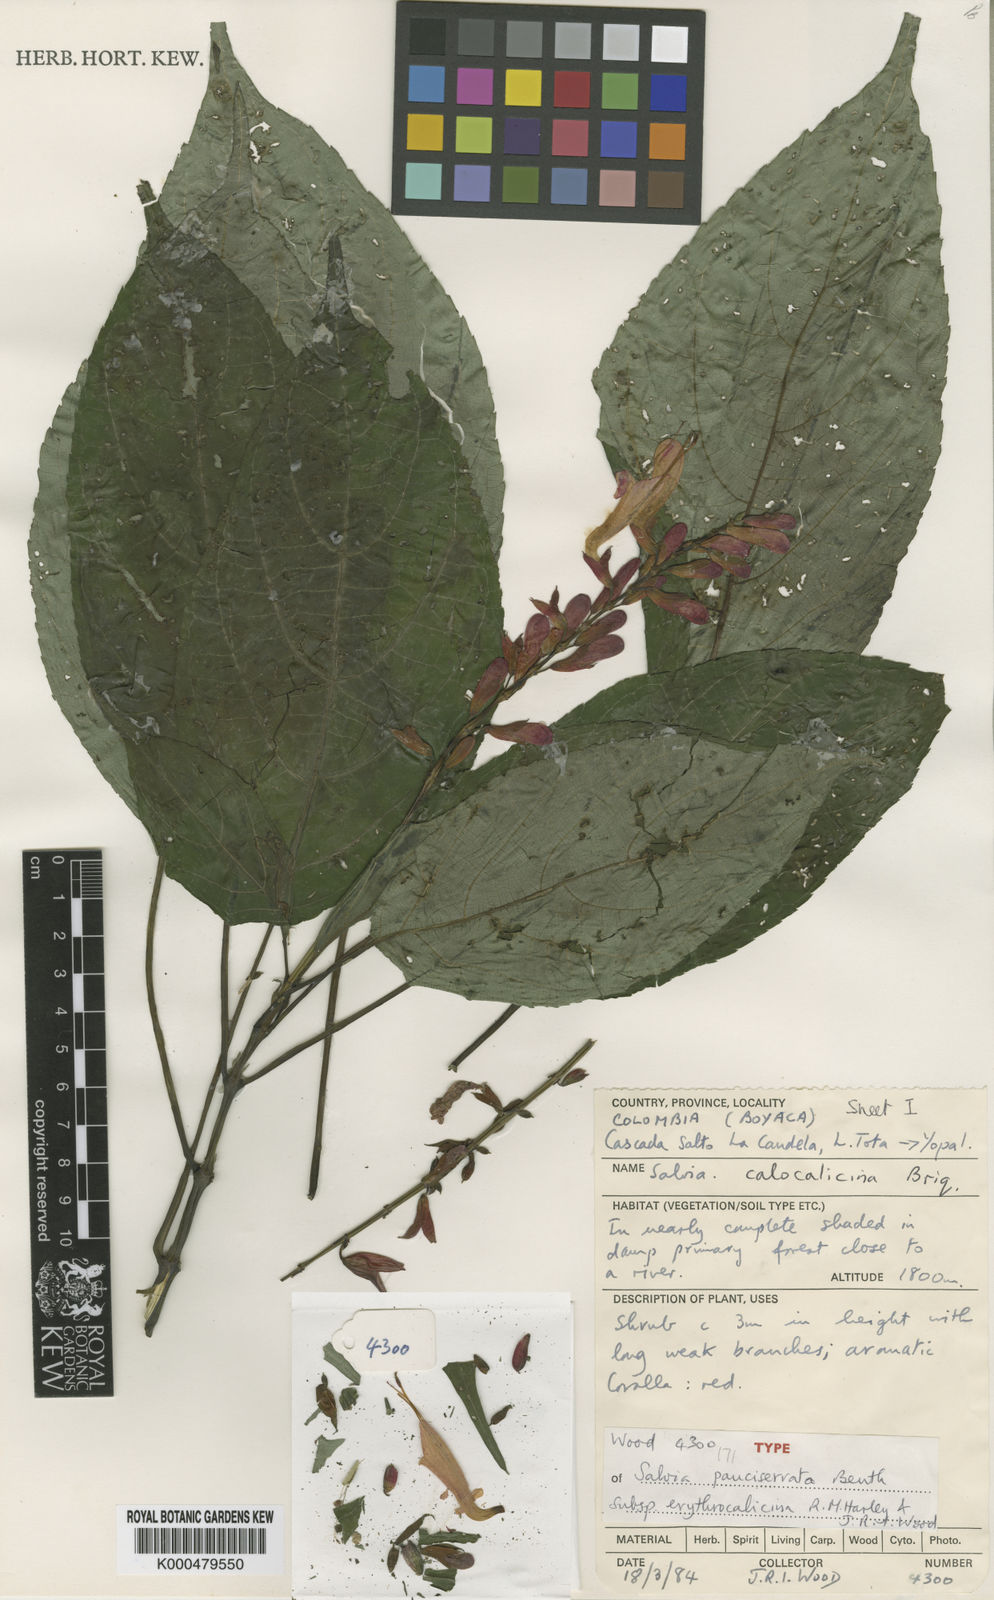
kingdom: Plantae
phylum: Tracheophyta
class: Magnoliopsida
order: Lamiales
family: Lamiaceae
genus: Salvia
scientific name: Salvia pauciserrata
